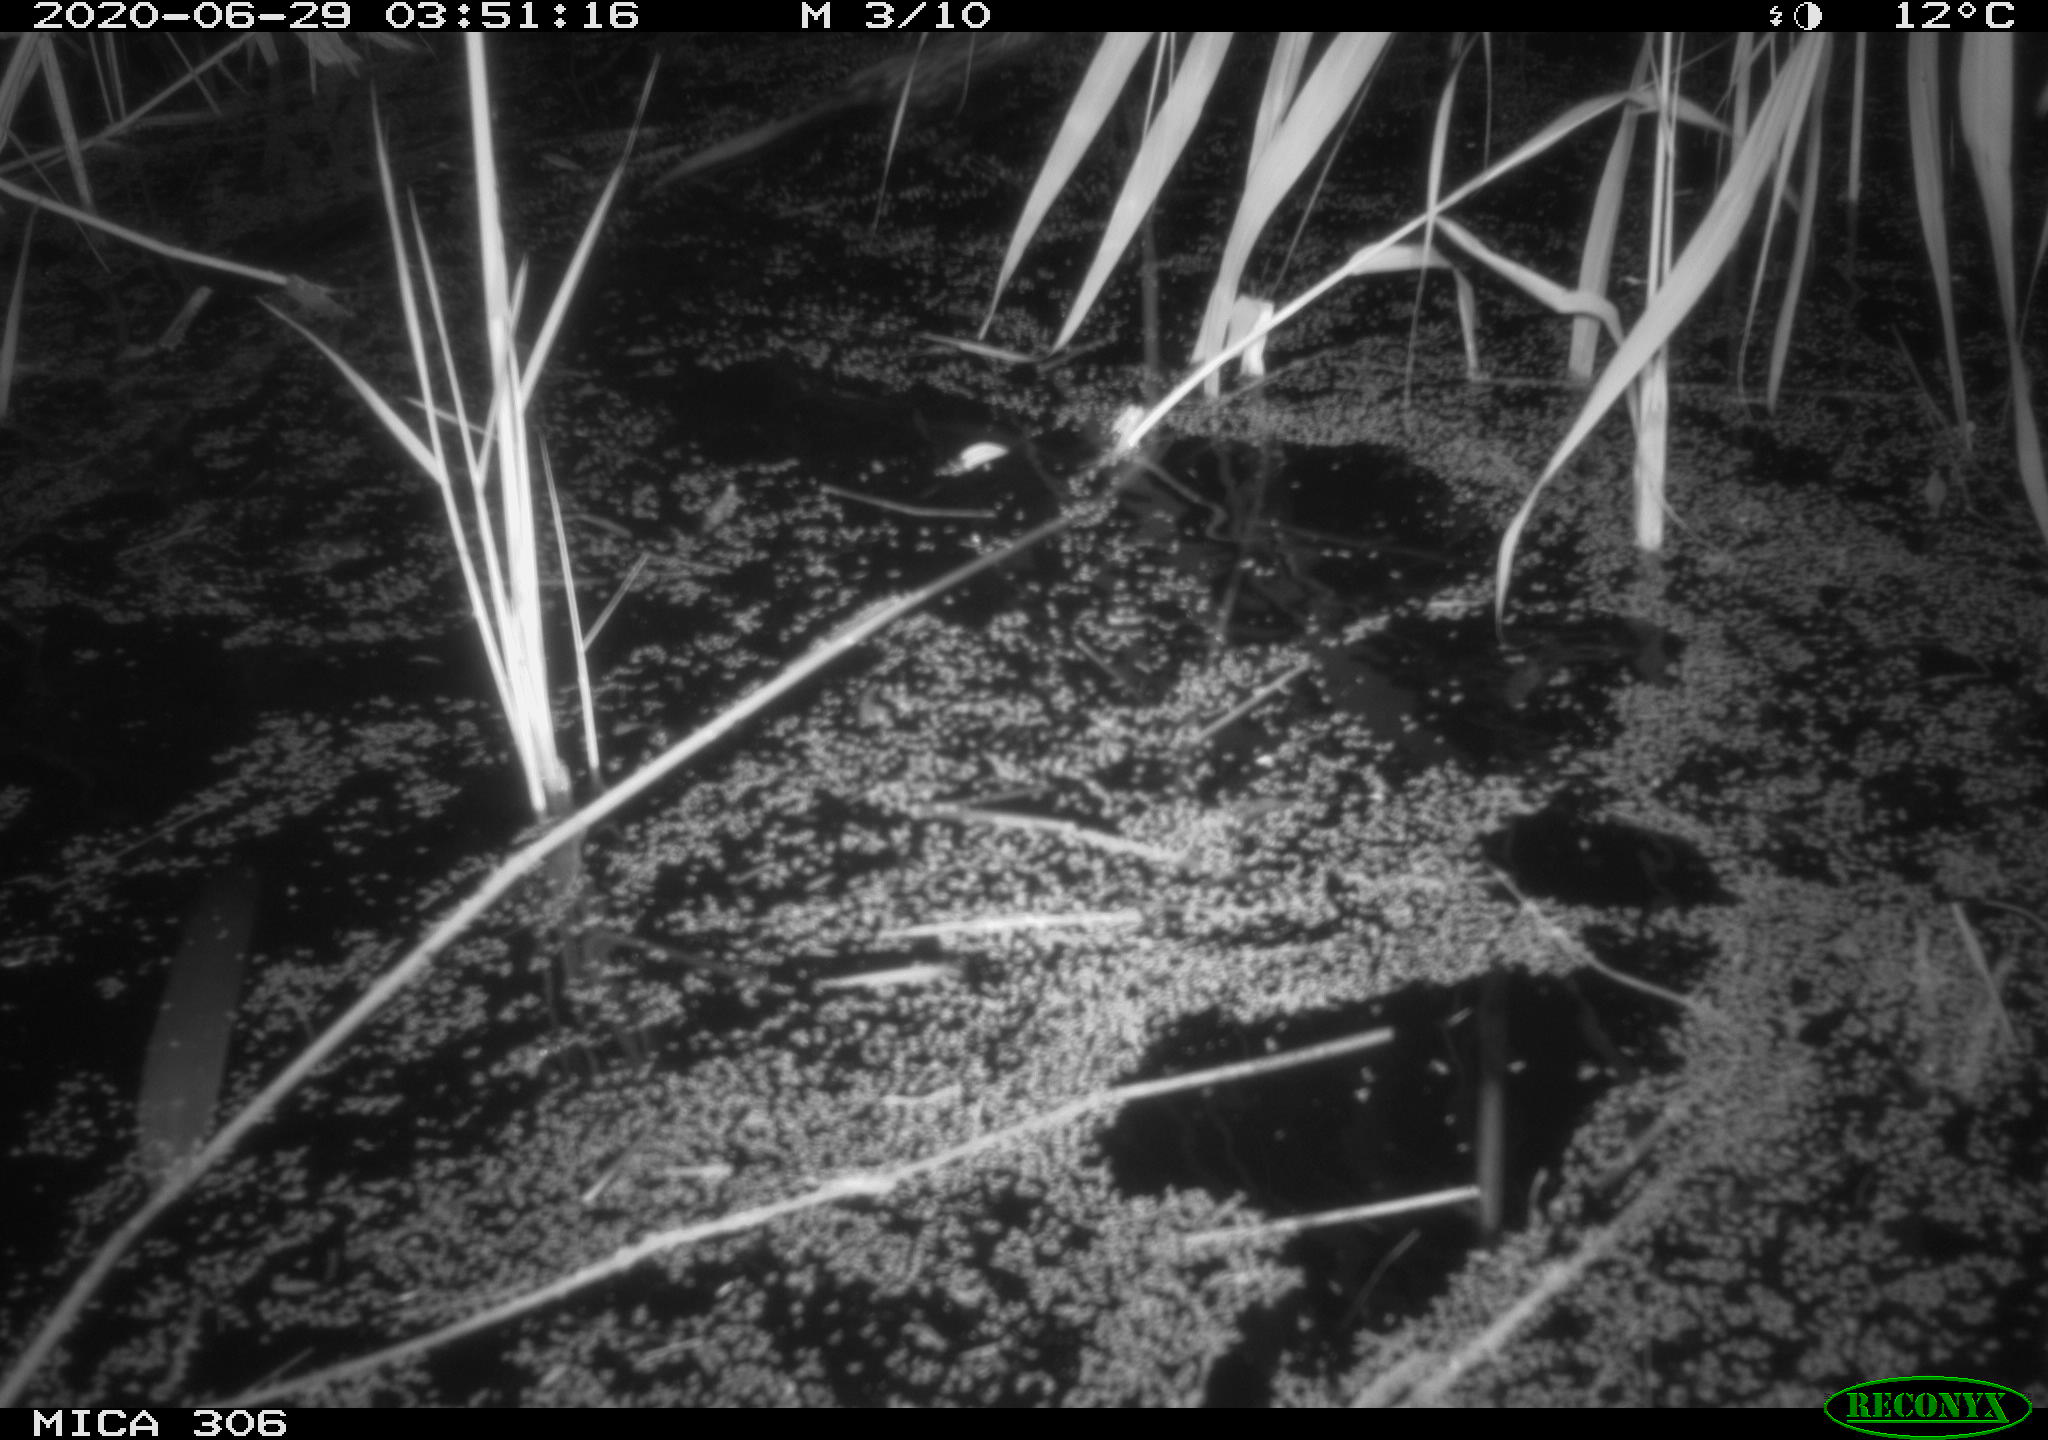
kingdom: Animalia
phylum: Chordata
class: Mammalia
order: Rodentia
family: Muridae
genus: Rattus
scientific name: Rattus norvegicus
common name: Brown rat
